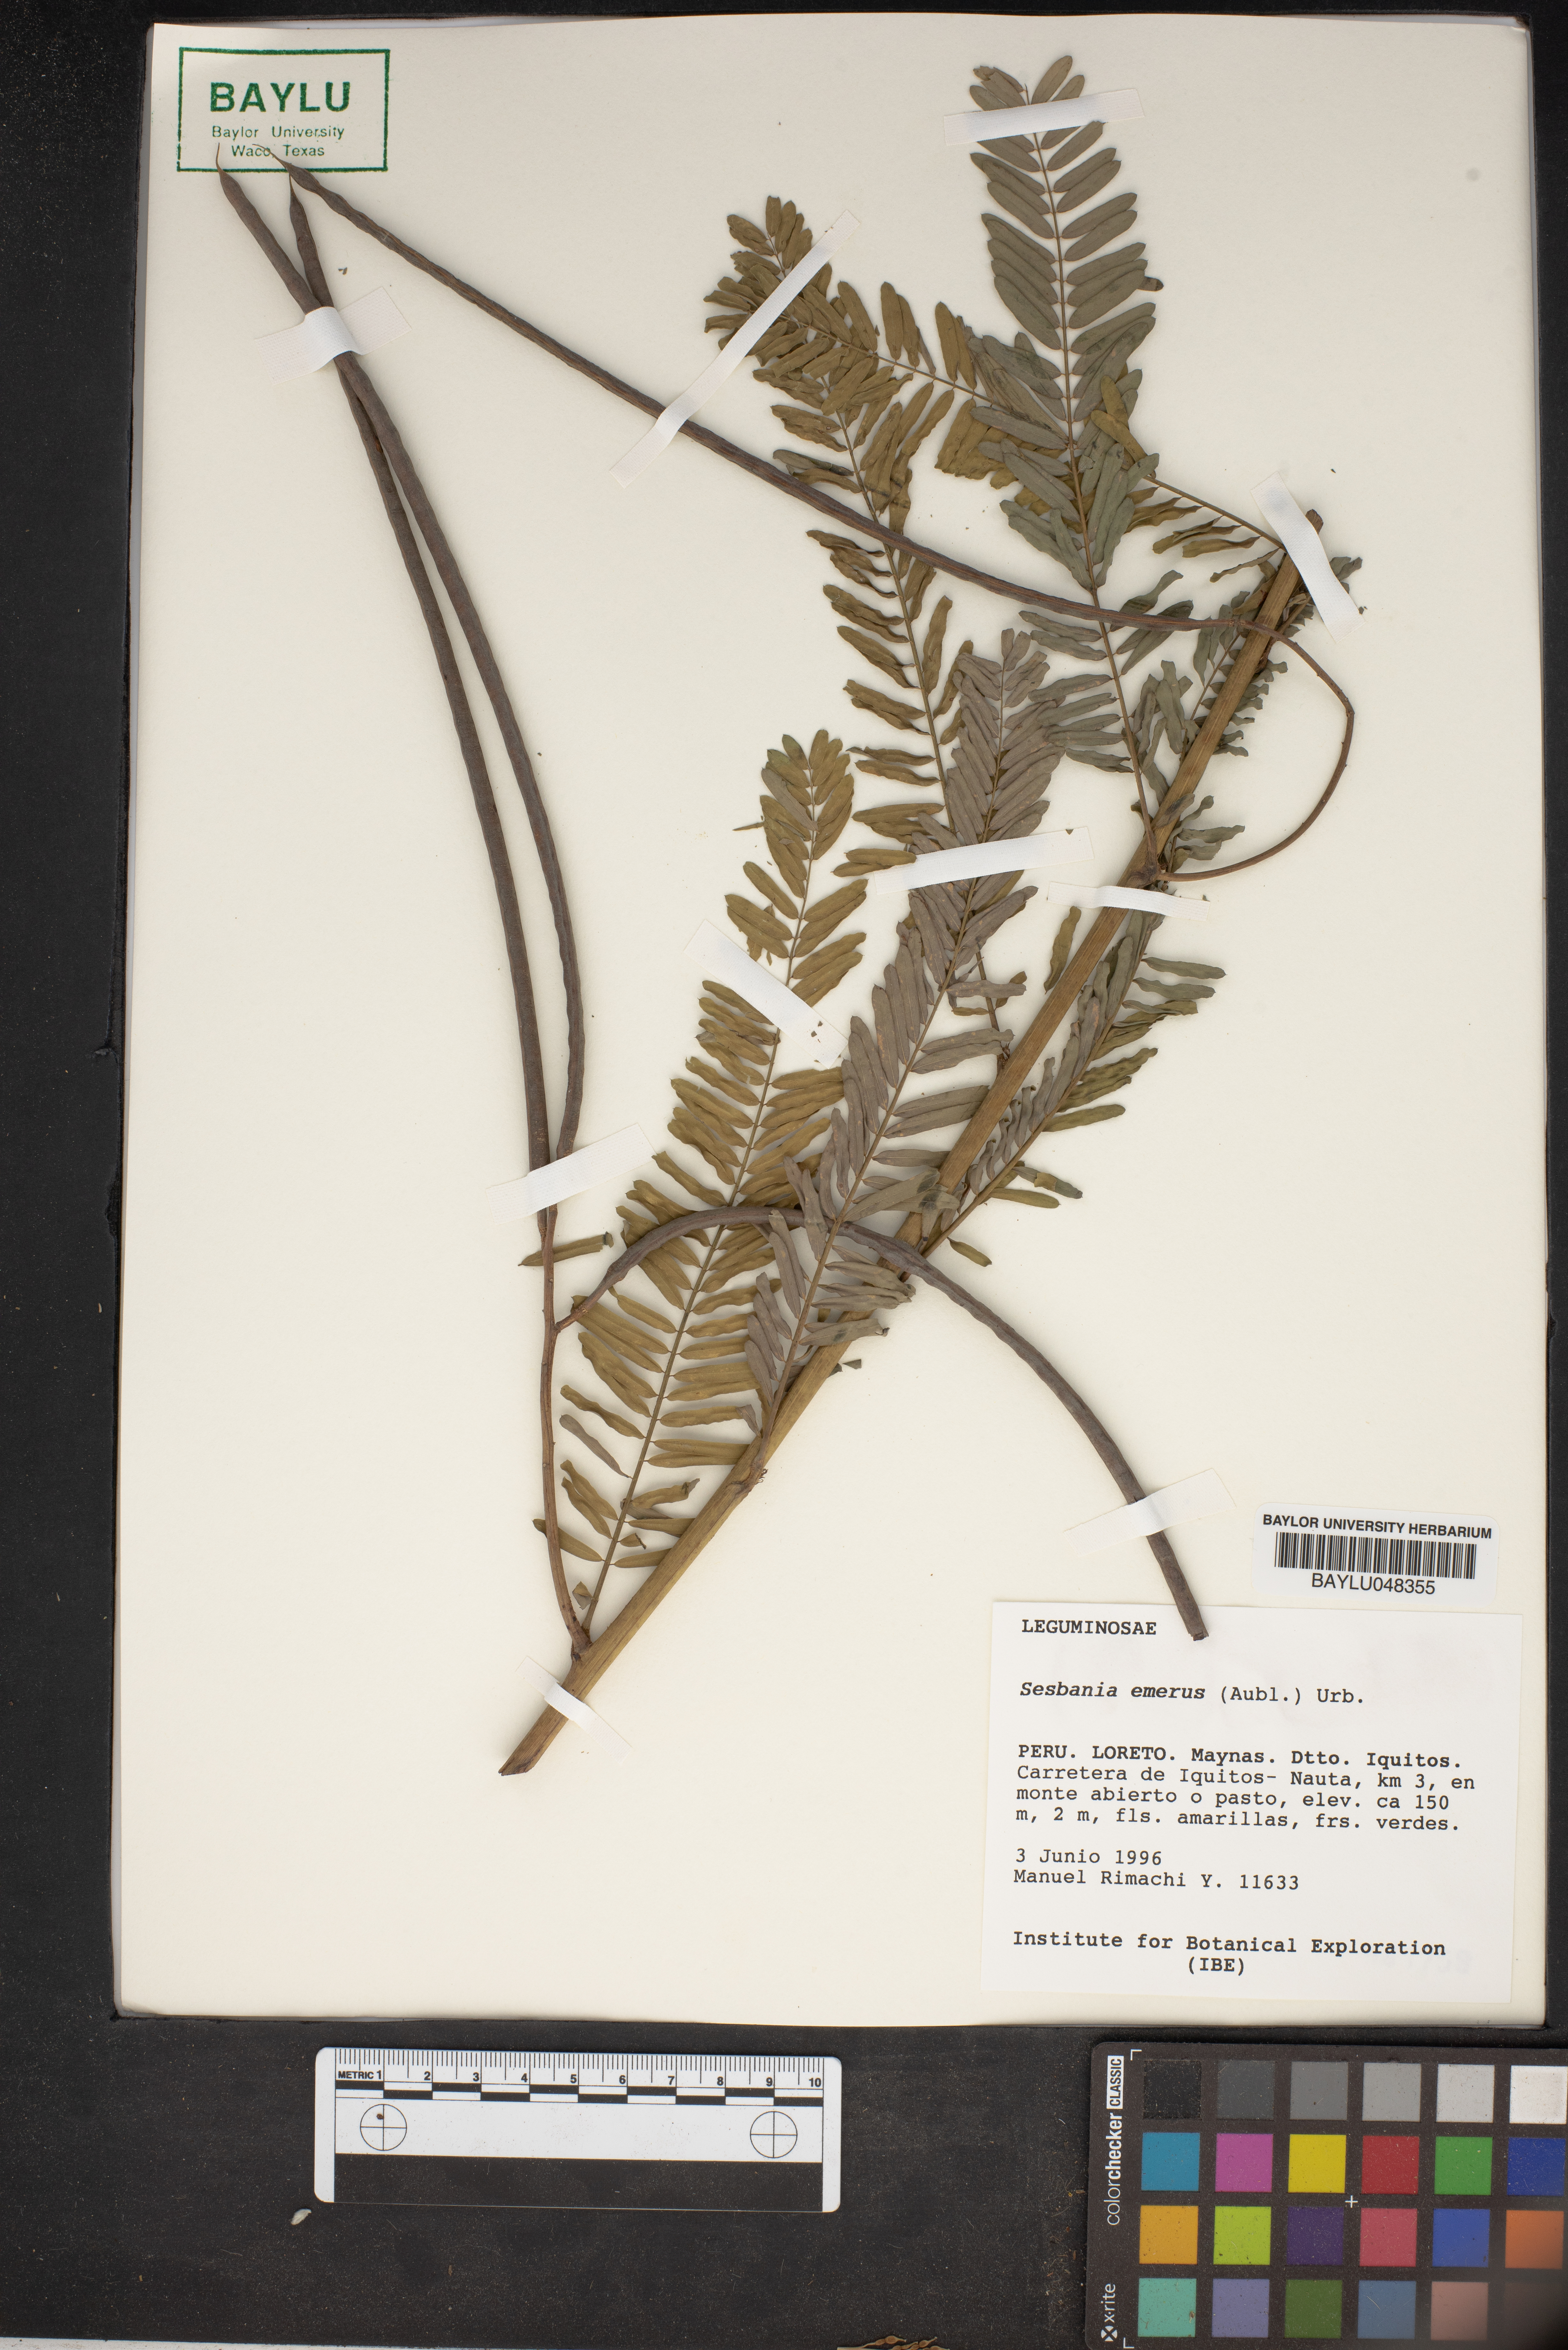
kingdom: Plantae
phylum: Tracheophyta
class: Magnoliopsida
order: Fabales
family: Fabaceae
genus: Sesbania
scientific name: Sesbania herbacea
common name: Bigpod sesbania
